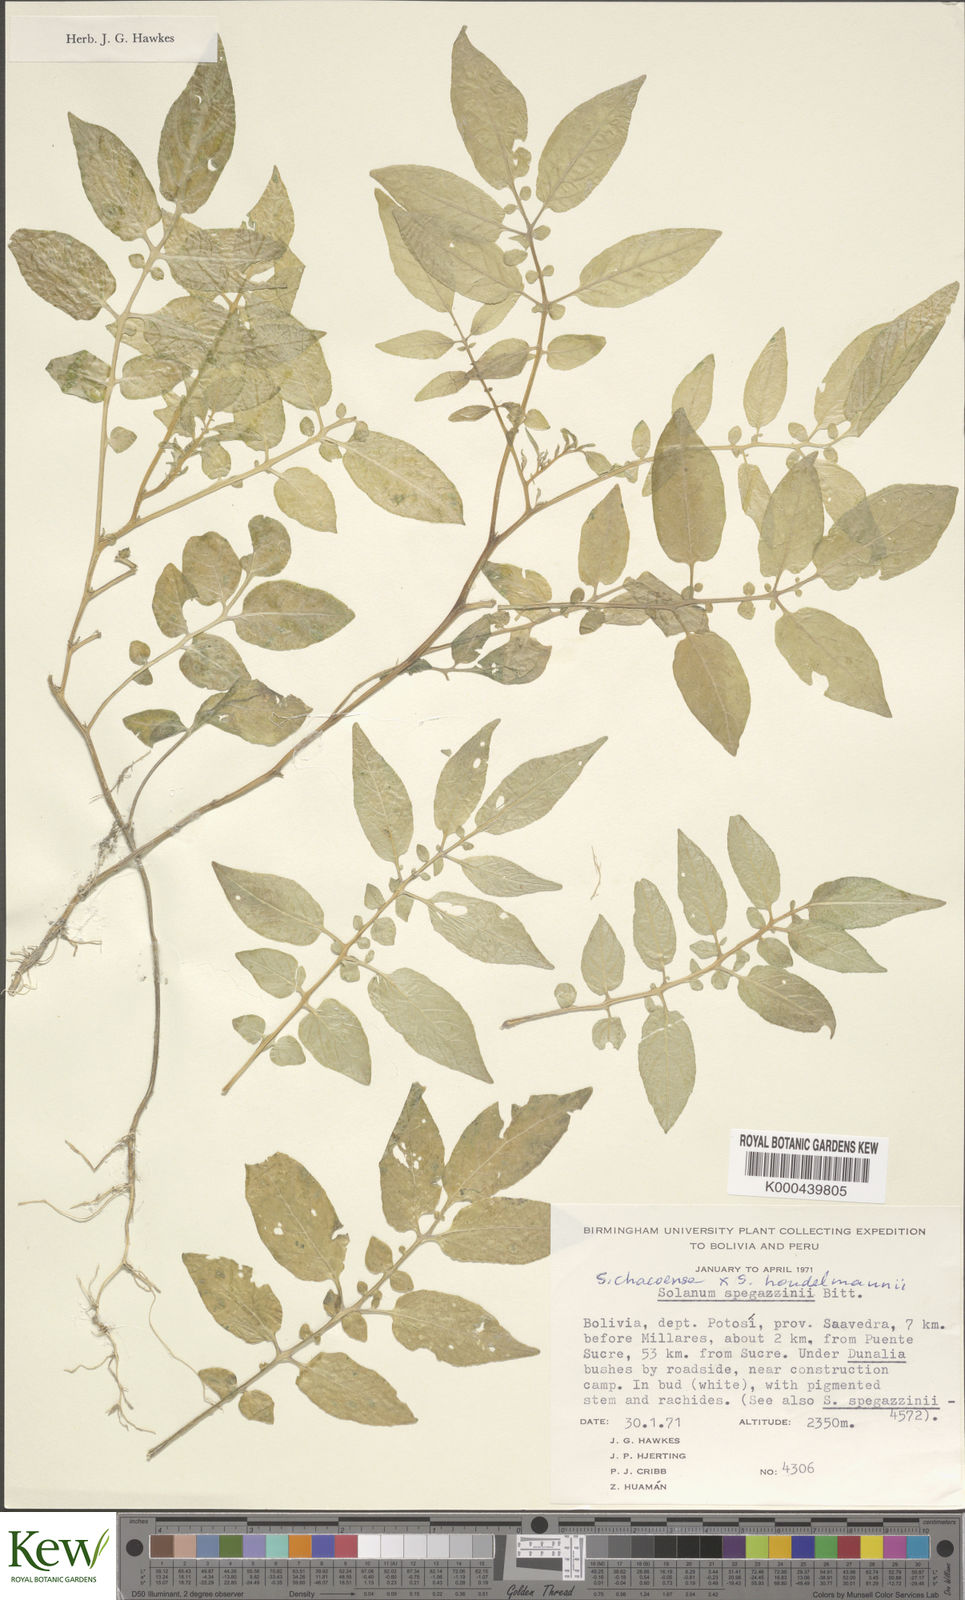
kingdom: Plantae
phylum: Tracheophyta
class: Magnoliopsida
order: Solanales
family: Solanaceae
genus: Solanum
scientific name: Solanum chacoense
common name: Chaco potato
